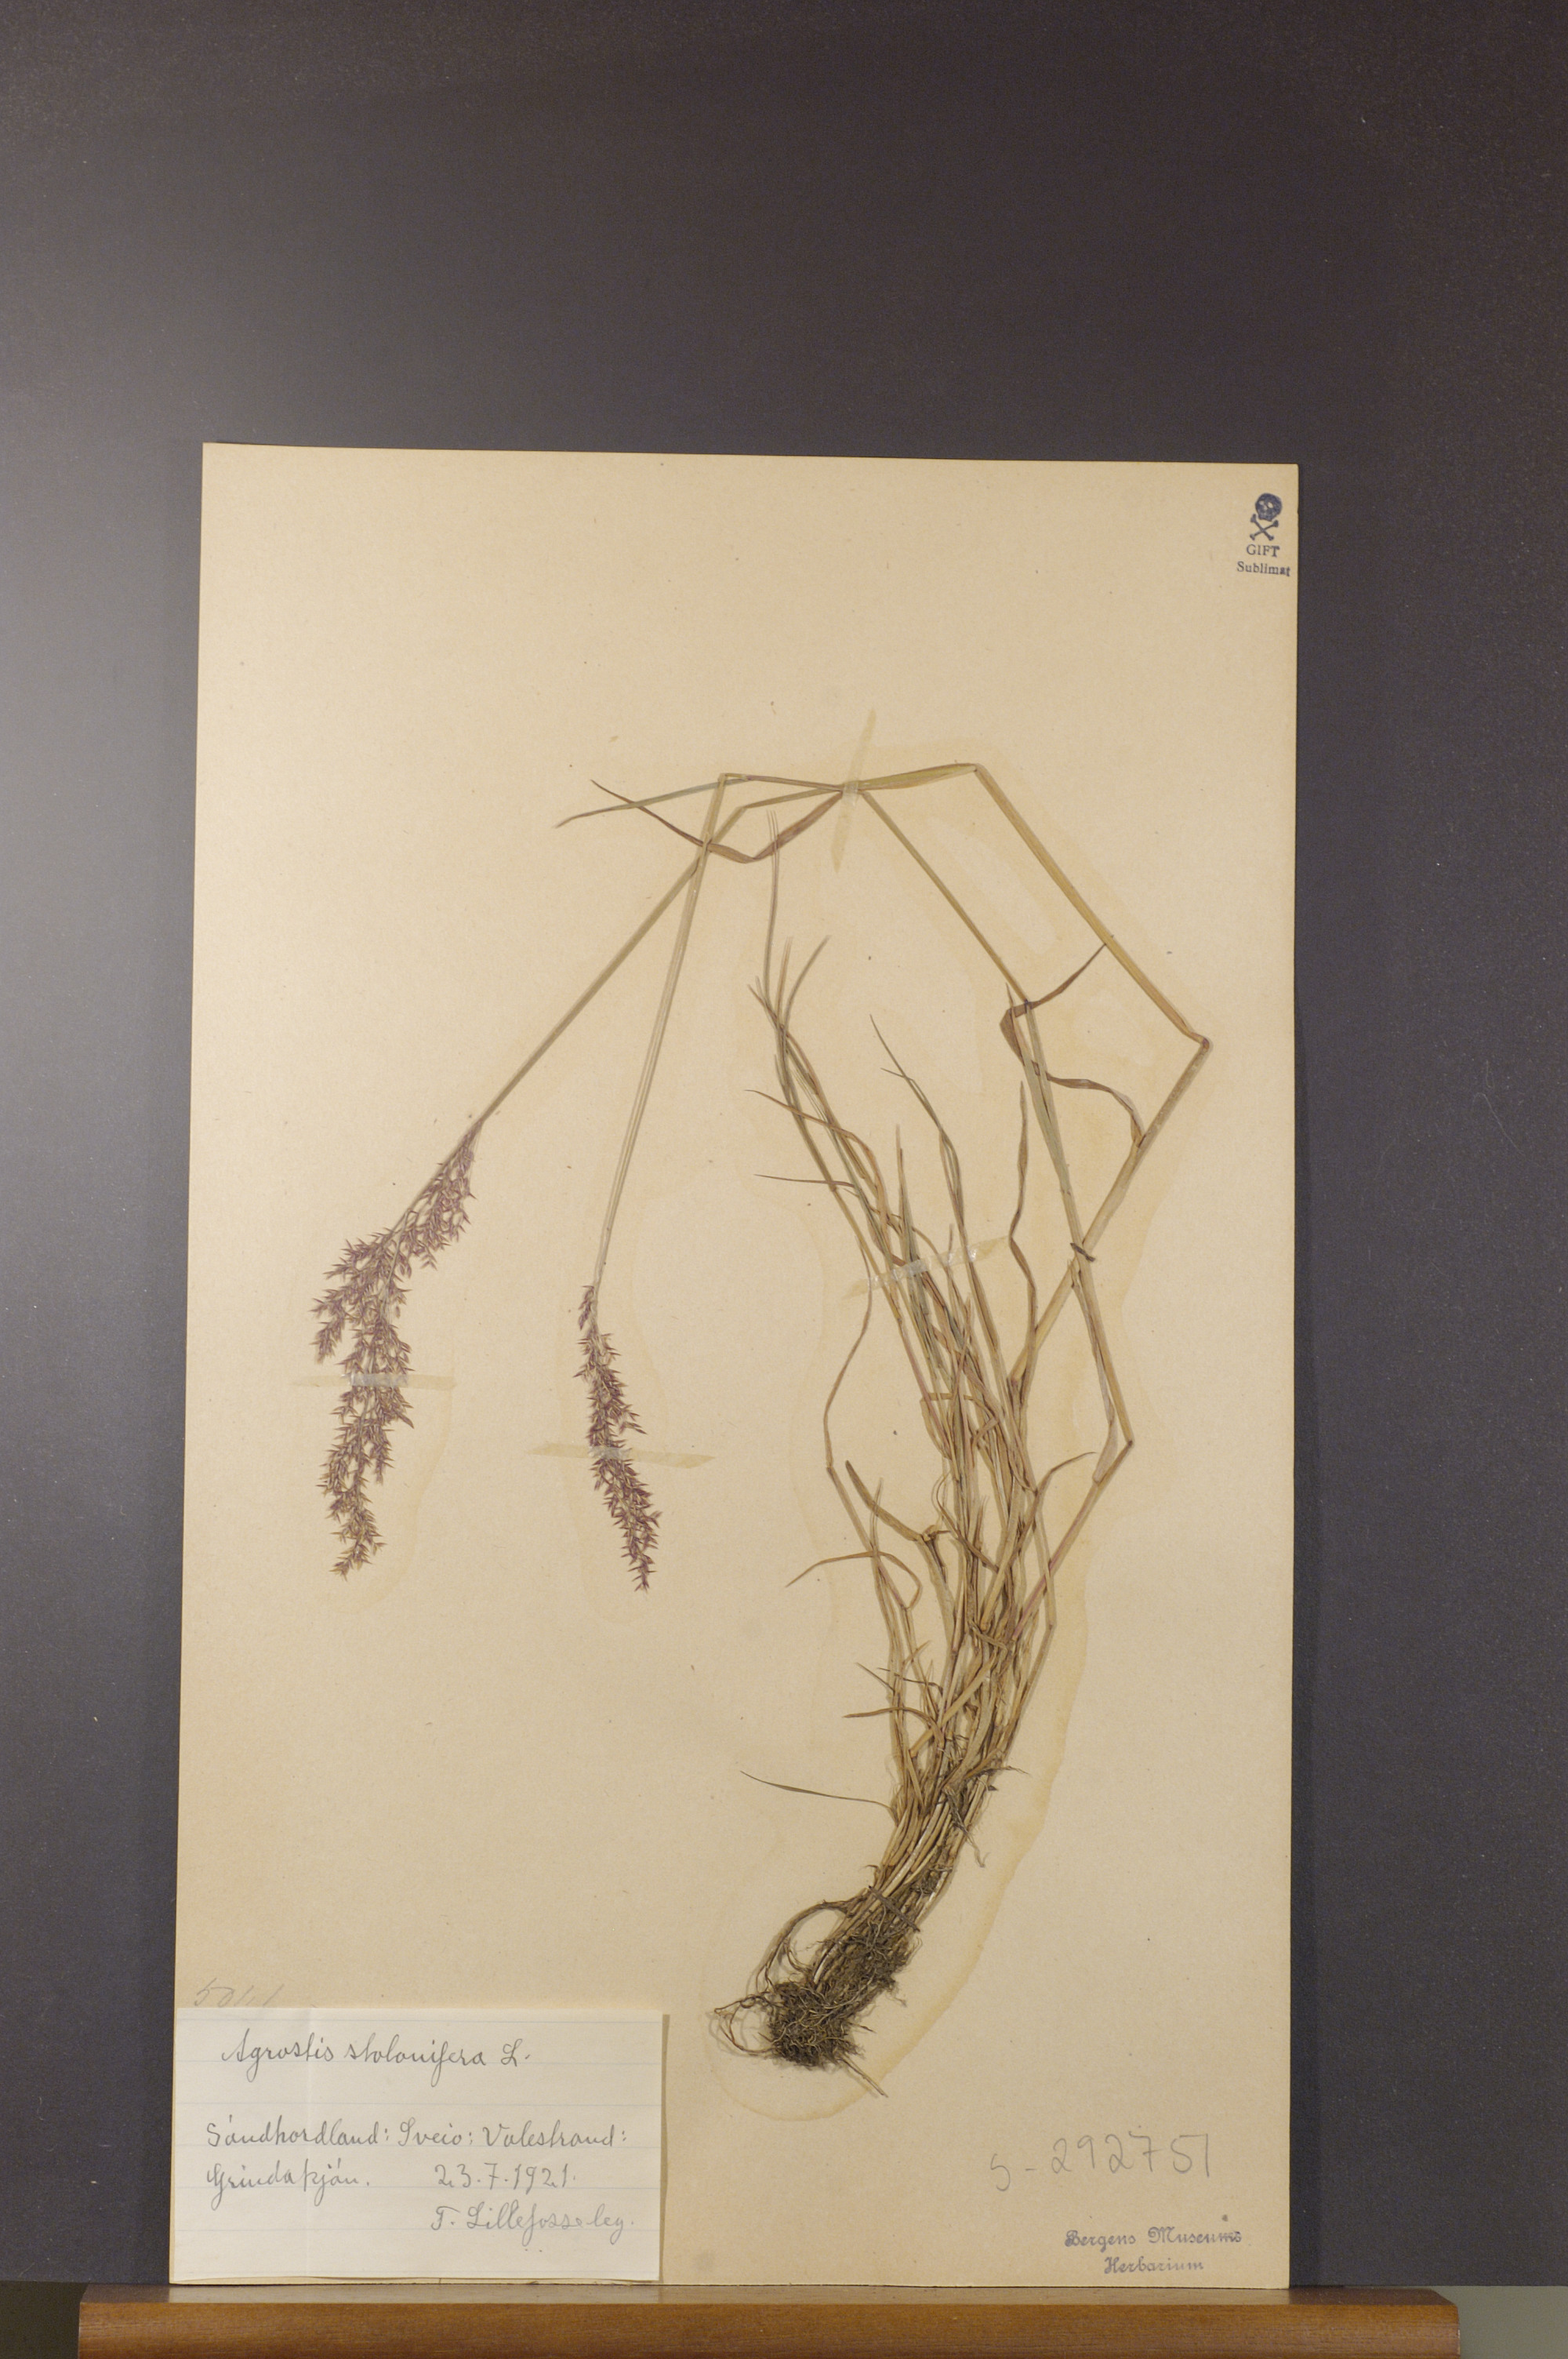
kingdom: Plantae
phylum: Tracheophyta
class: Liliopsida
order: Poales
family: Poaceae
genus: Agrostis
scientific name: Agrostis stolonifera
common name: Creeping bentgrass
